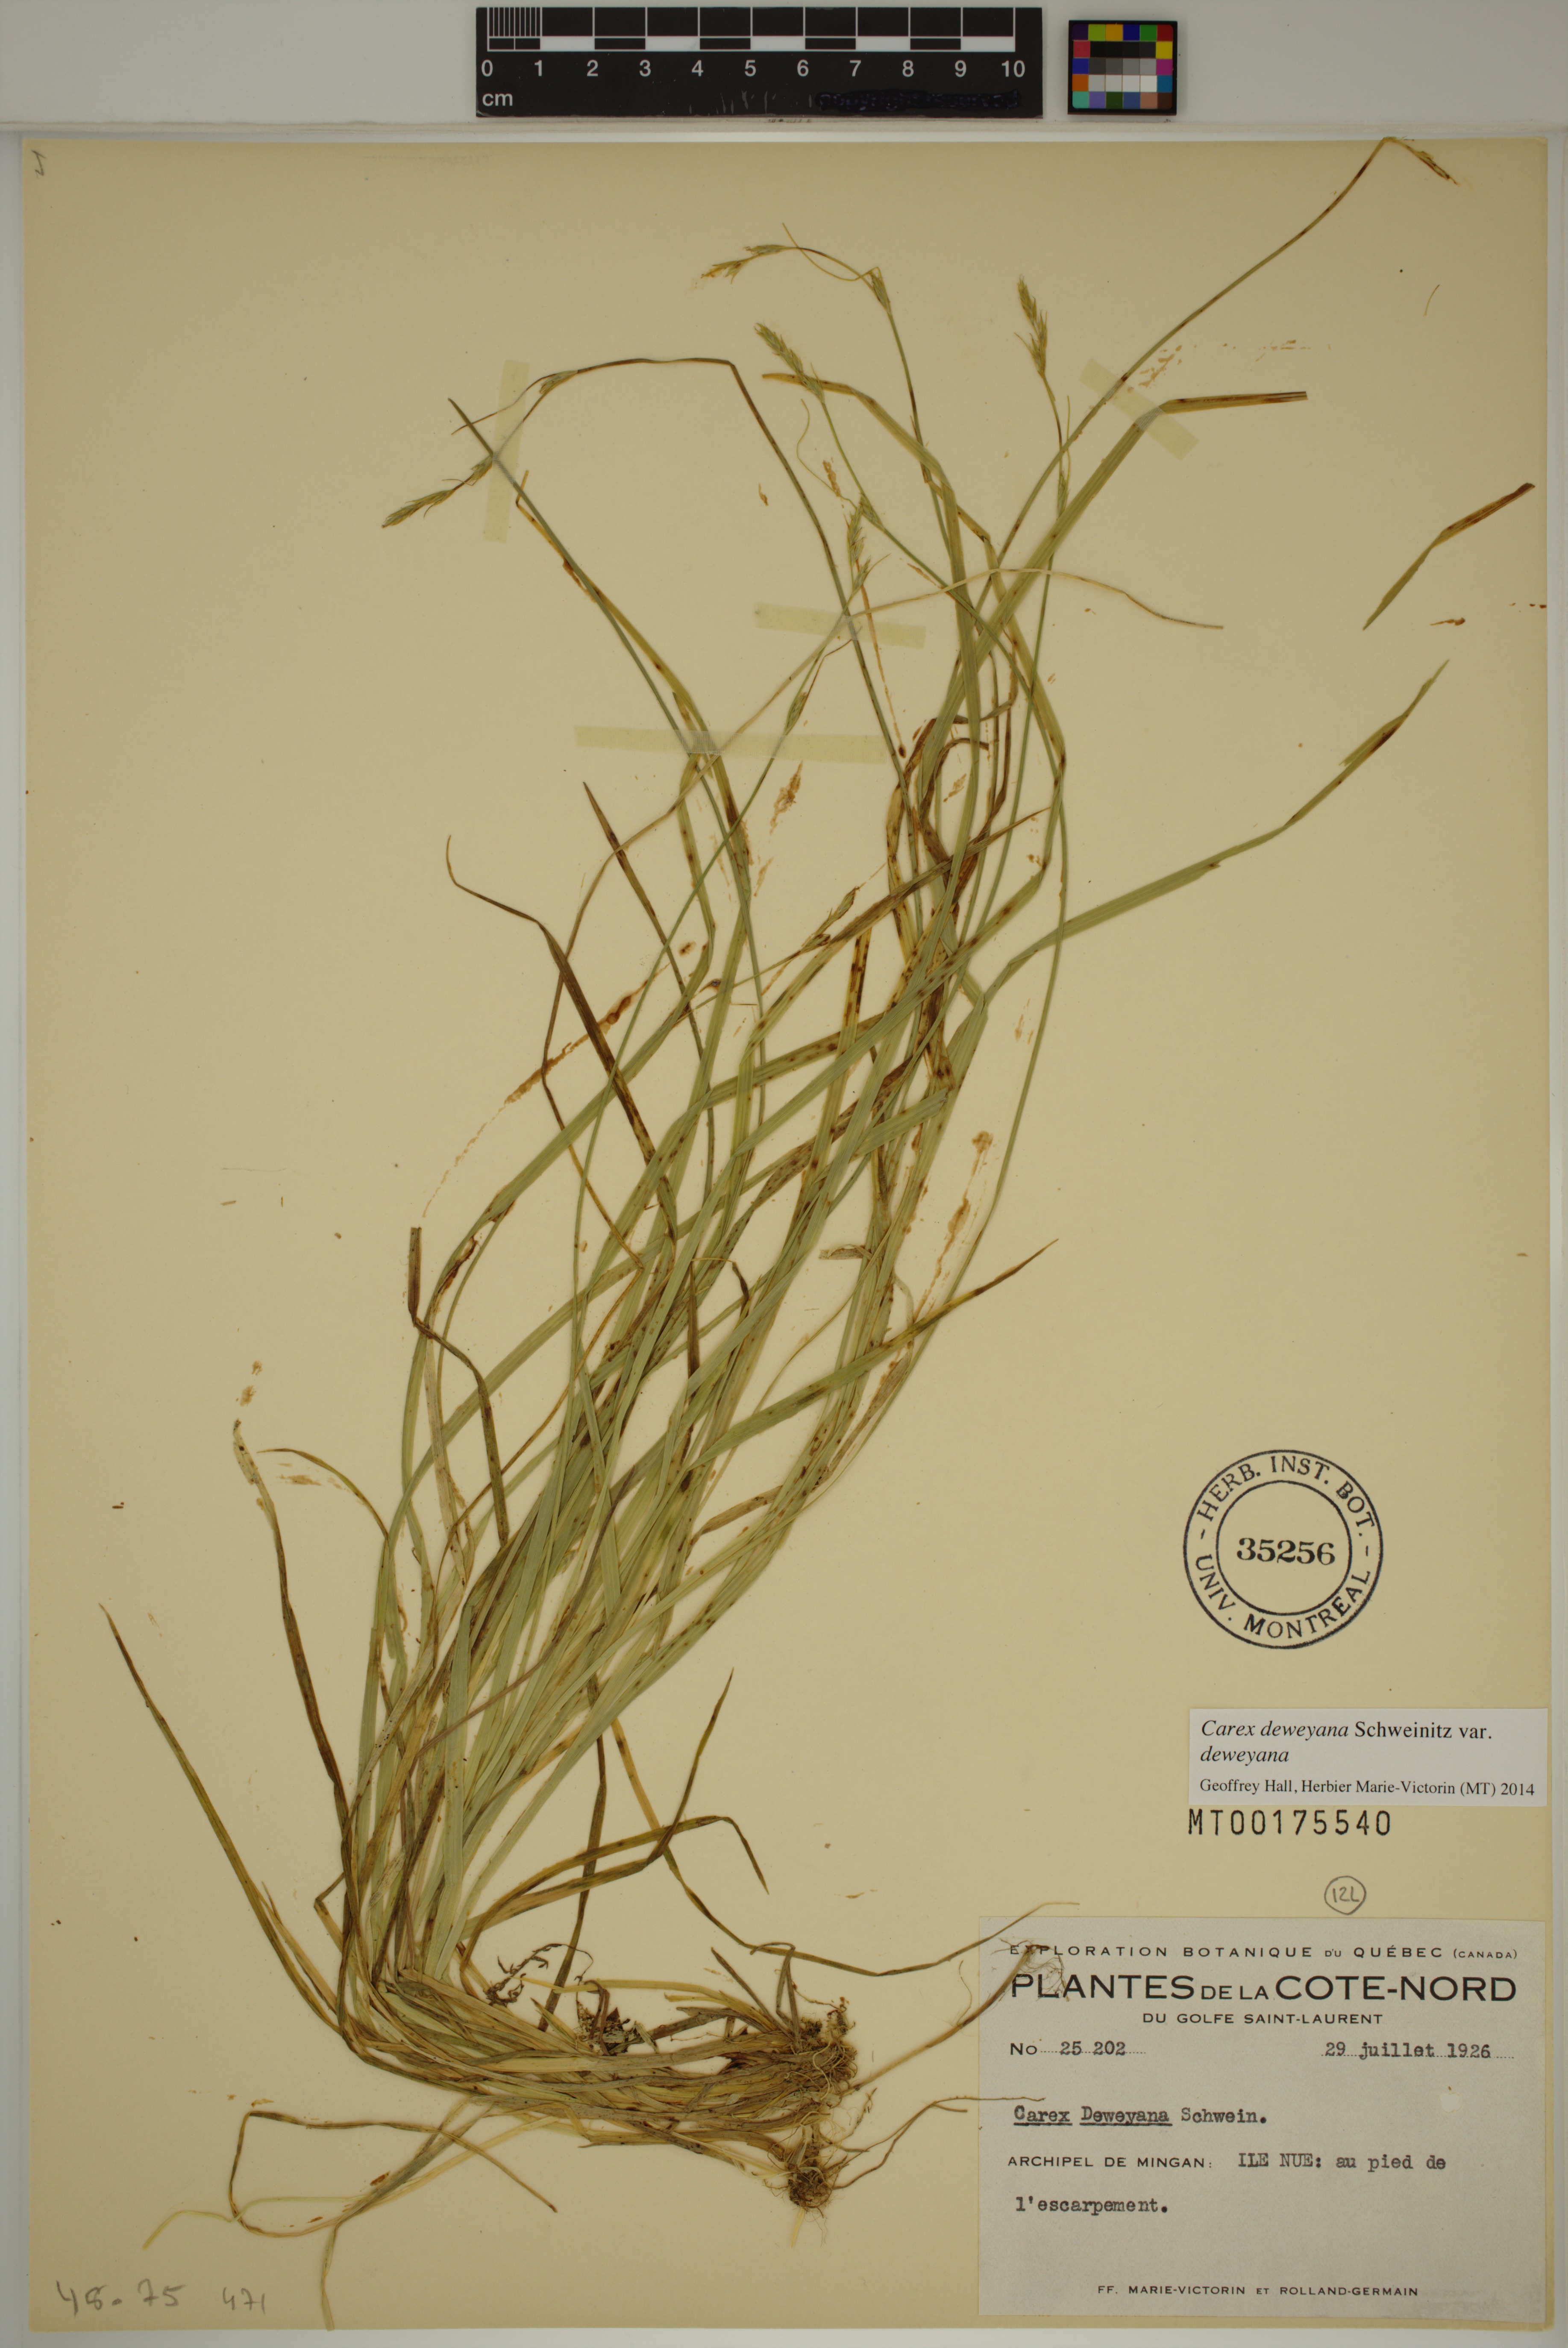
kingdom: Plantae
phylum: Tracheophyta
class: Liliopsida
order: Poales
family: Cyperaceae
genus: Carex
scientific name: Carex deweyana
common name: Dewey's sedge
